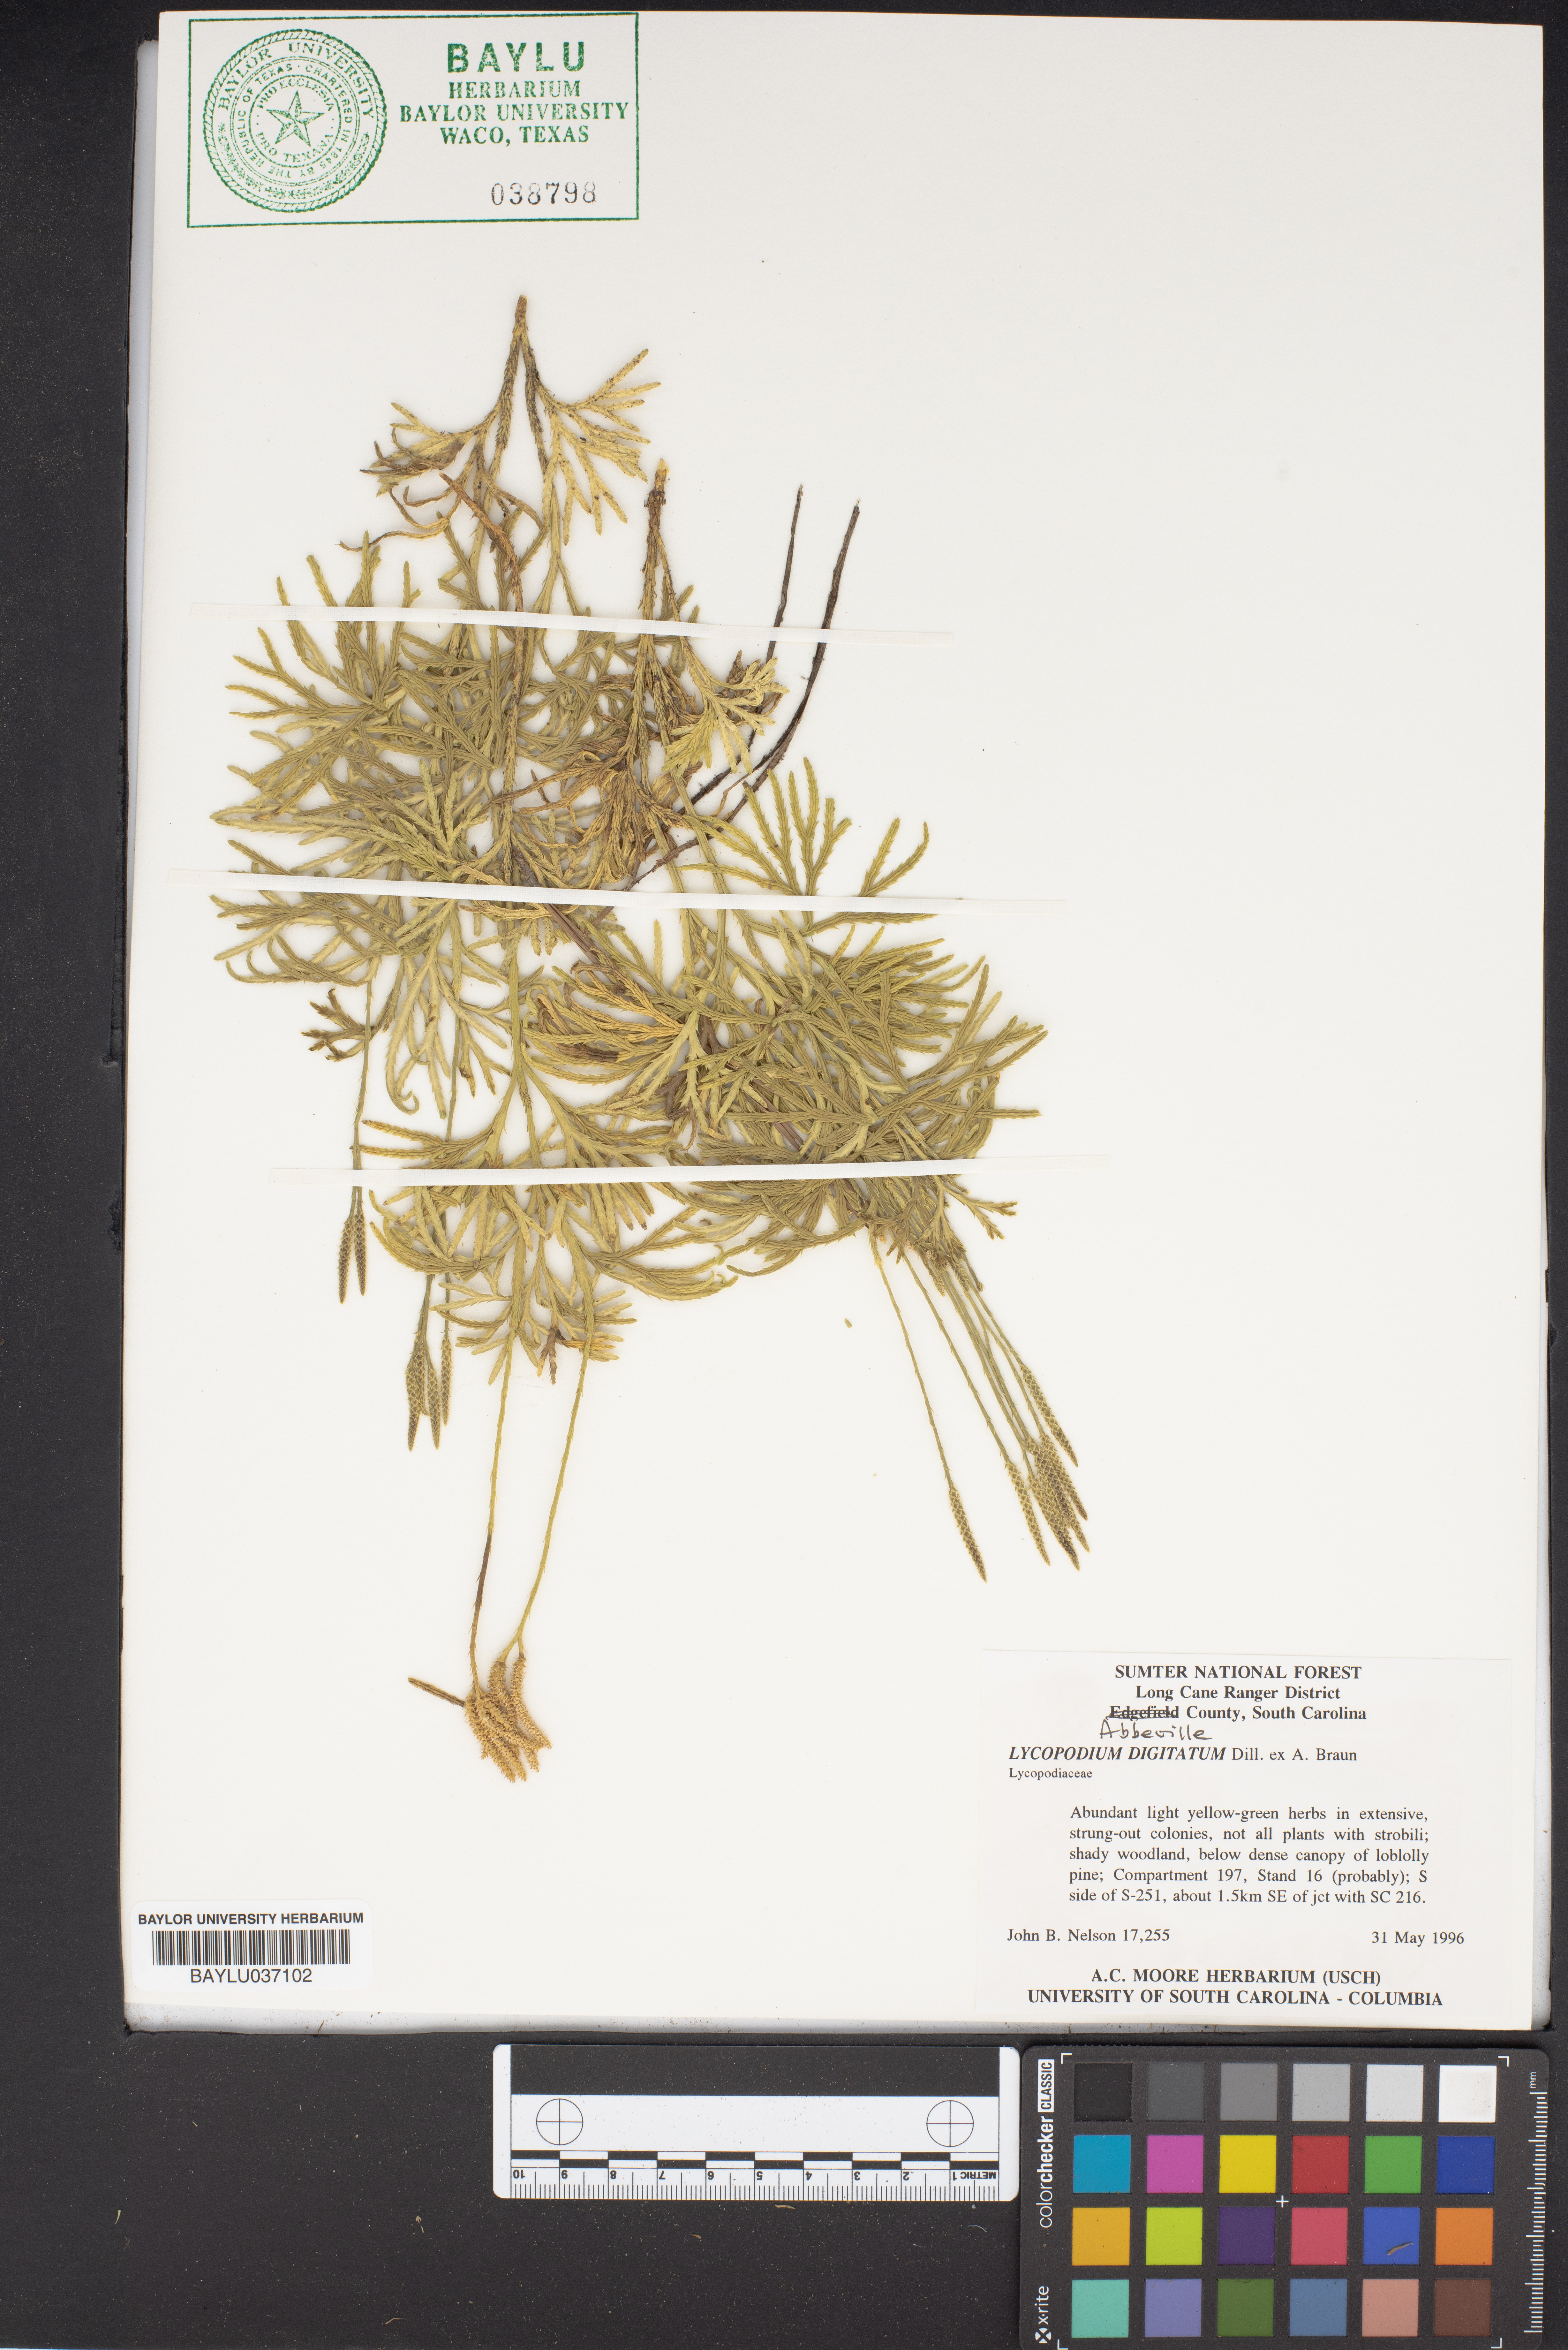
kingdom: Plantae
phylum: Tracheophyta
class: Lycopodiopsida
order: Lycopodiales
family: Lycopodiaceae
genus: Diphasiastrum
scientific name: Diphasiastrum digitatum
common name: Southern running-pine
